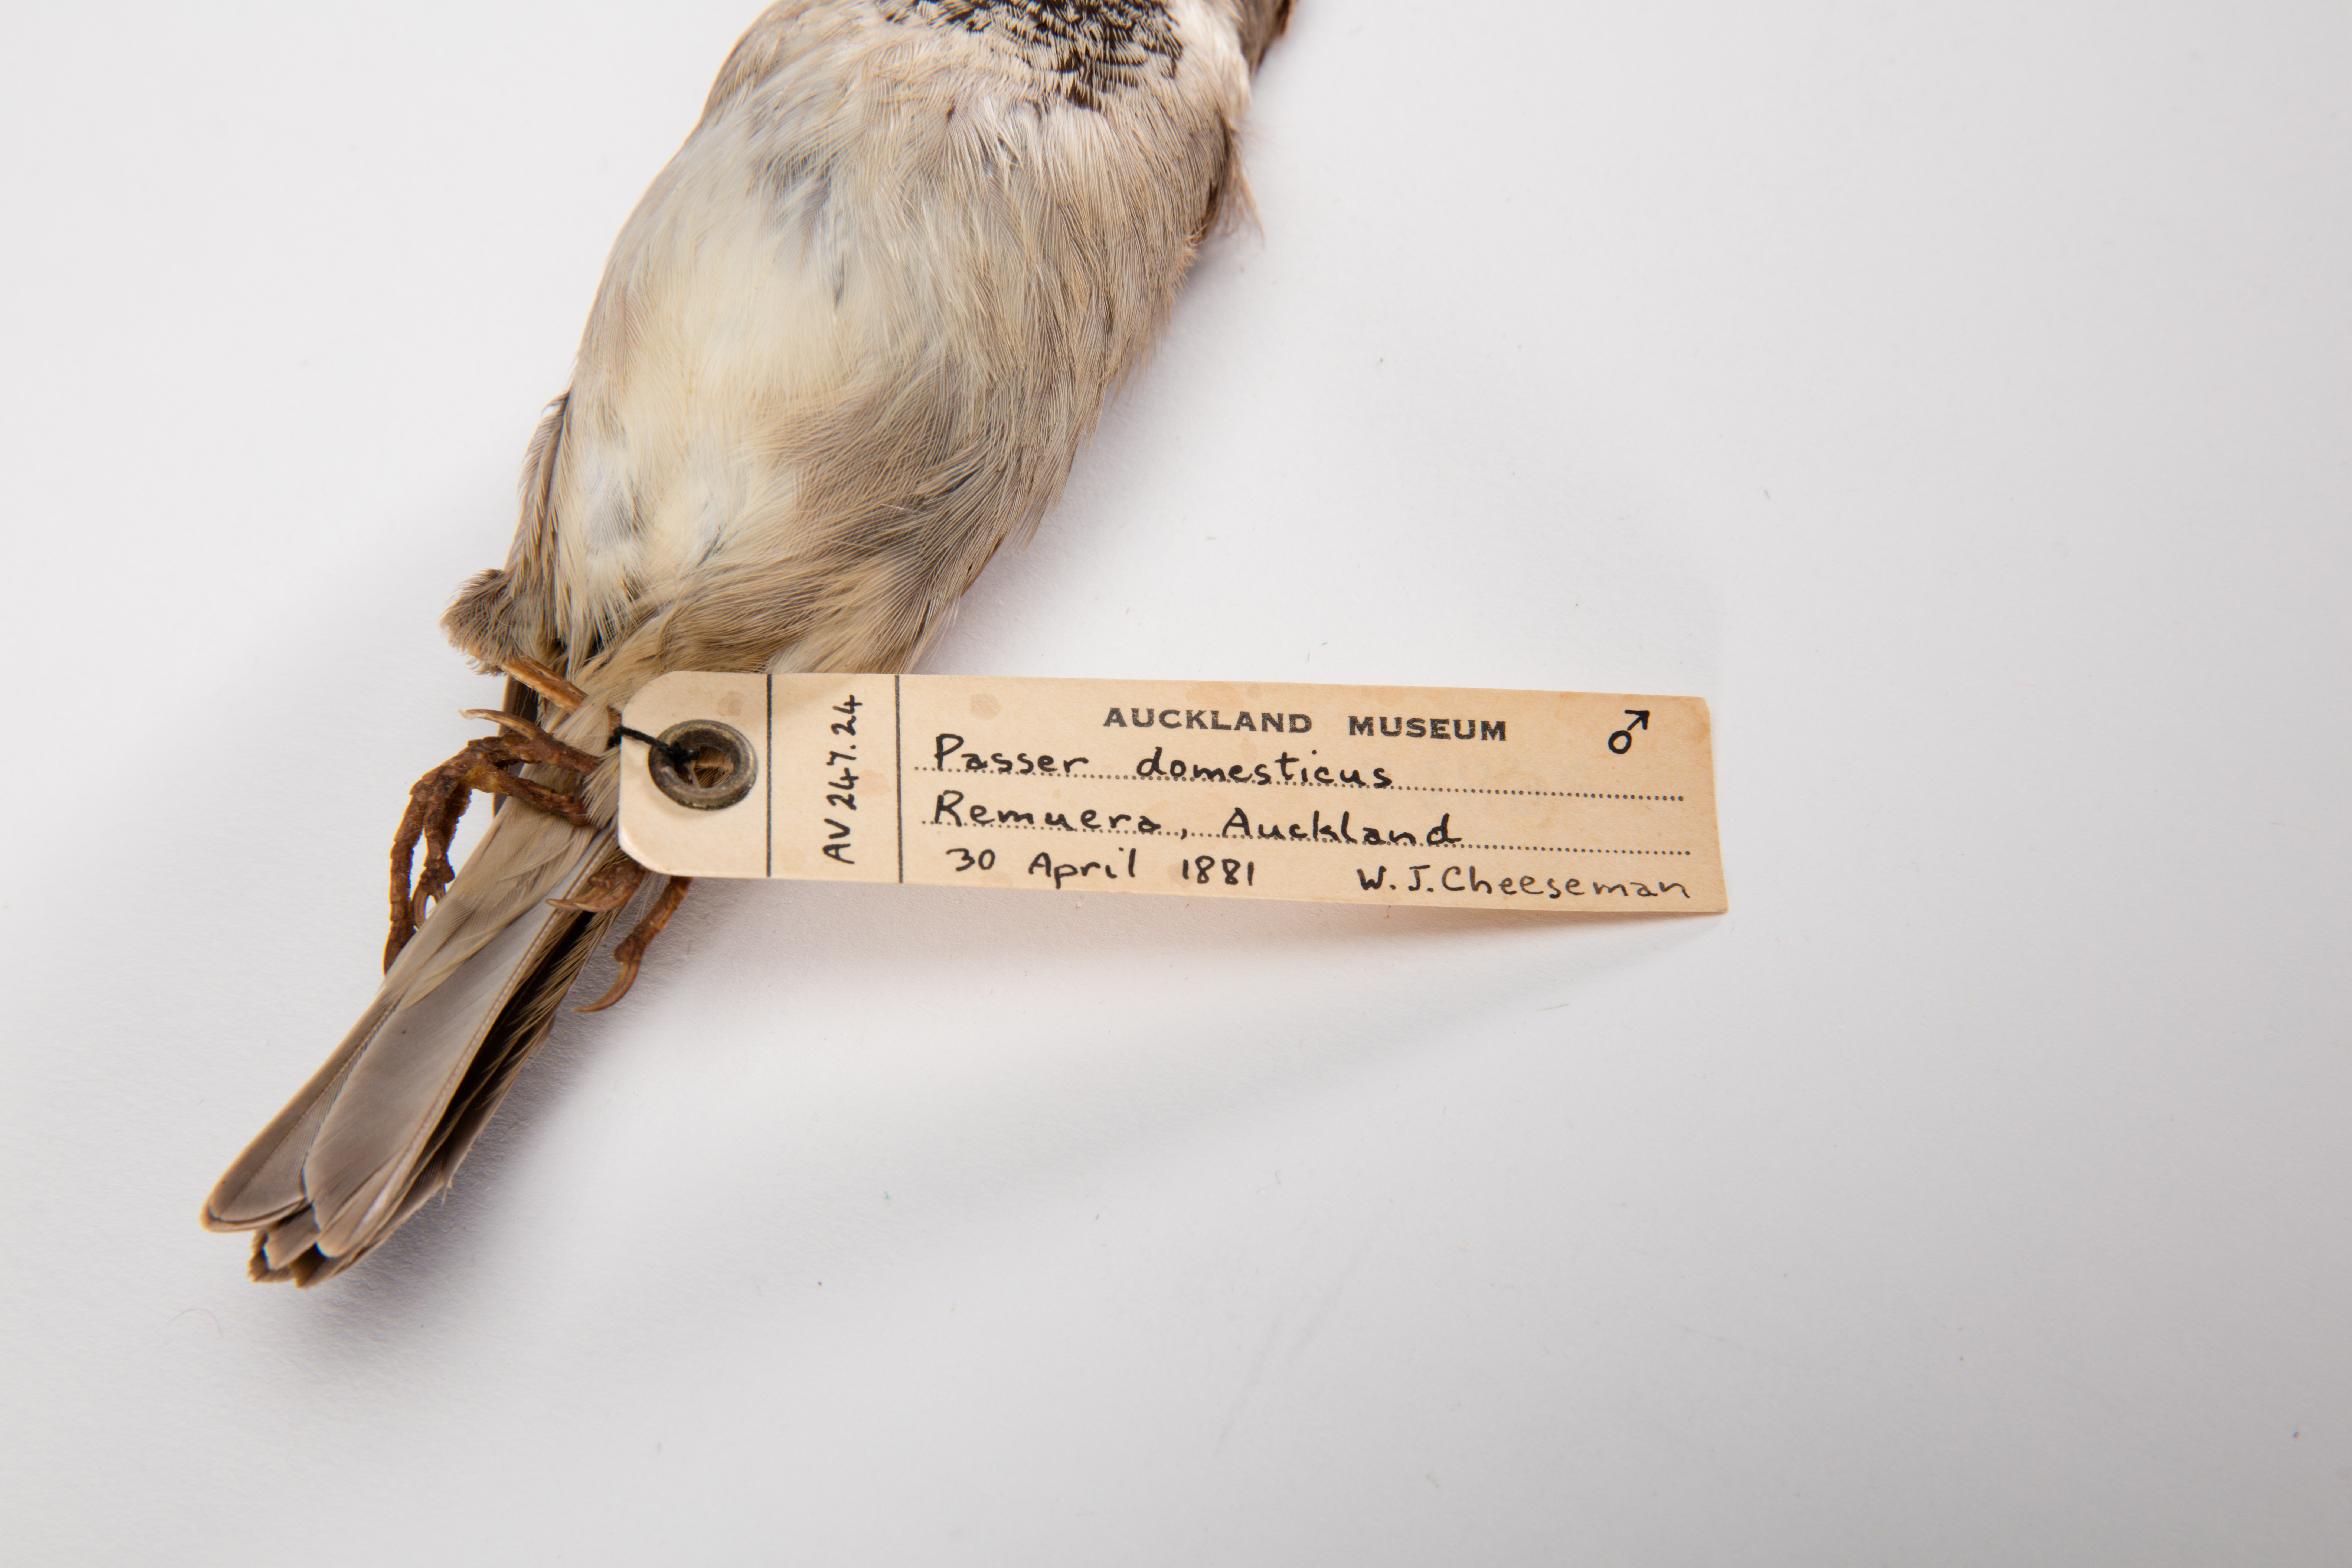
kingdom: Animalia
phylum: Chordata
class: Aves
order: Passeriformes
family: Passeridae
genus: Passer
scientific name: Passer domesticus
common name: House sparrow
